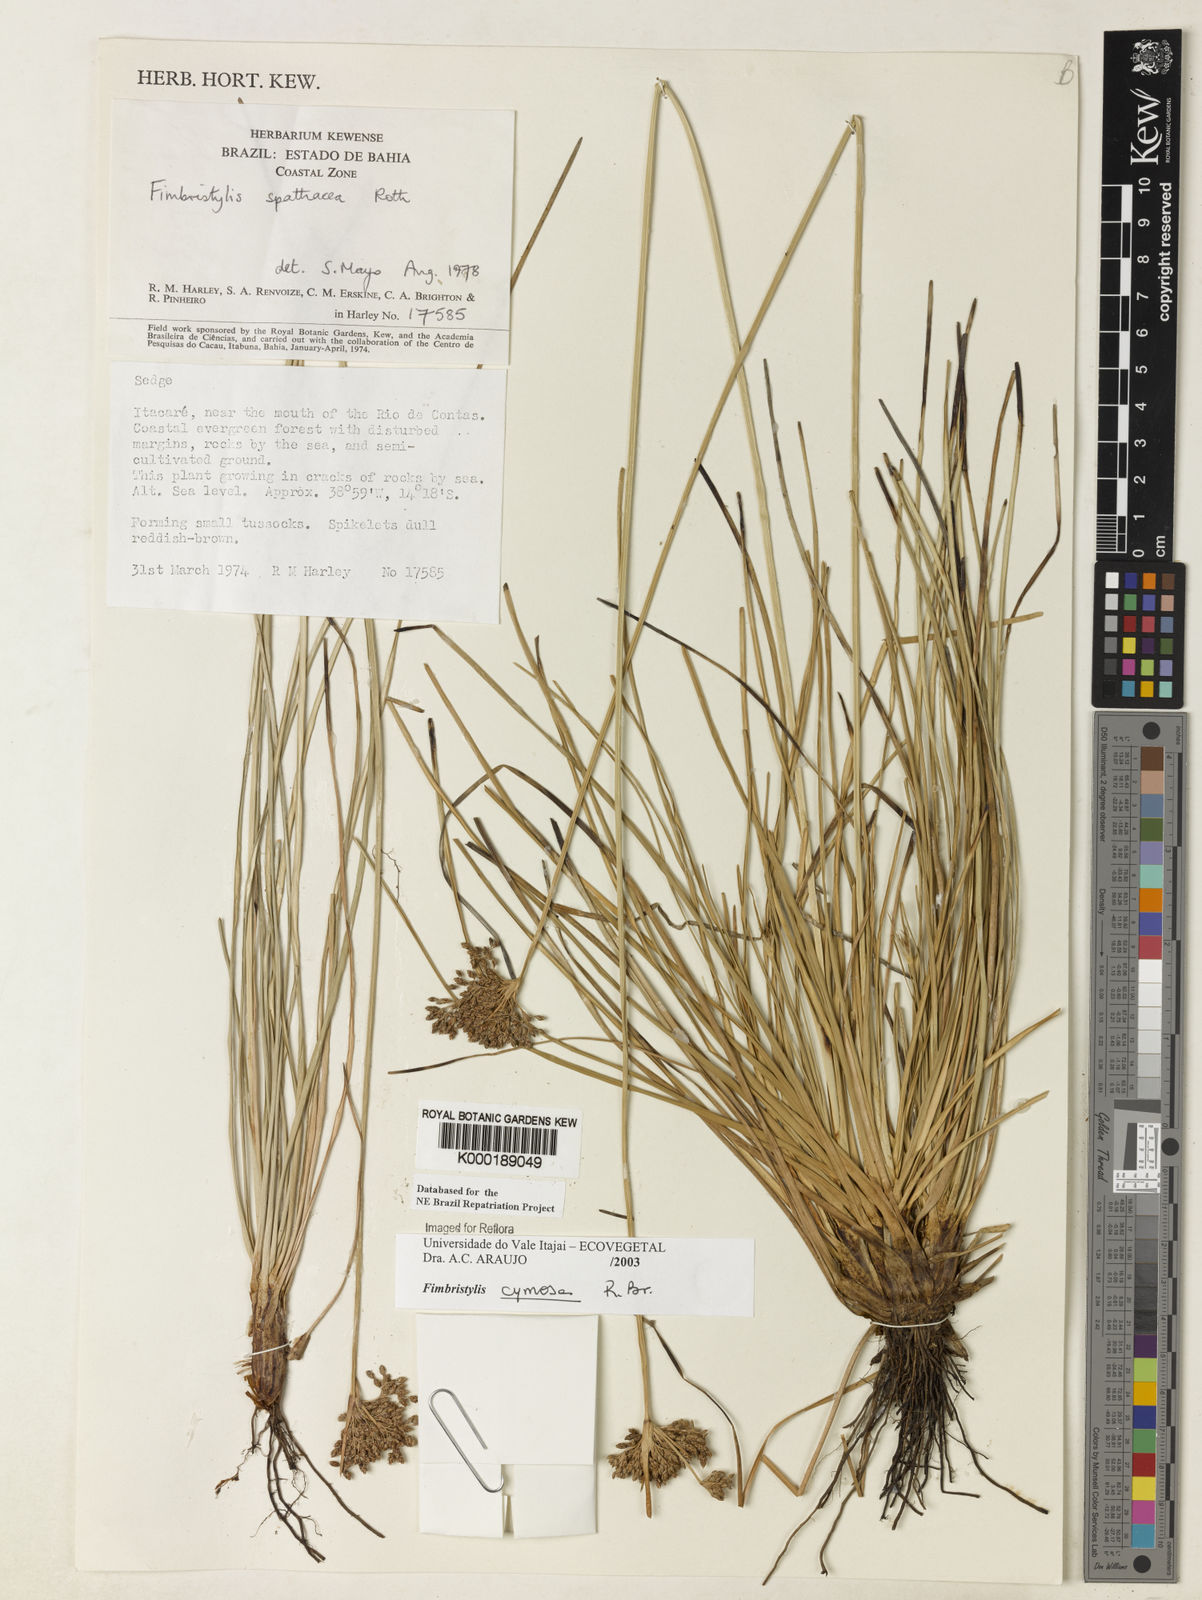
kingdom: Plantae
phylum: Tracheophyta
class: Liliopsida
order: Poales
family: Cyperaceae
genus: Fimbristylis
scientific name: Fimbristylis cymosa
